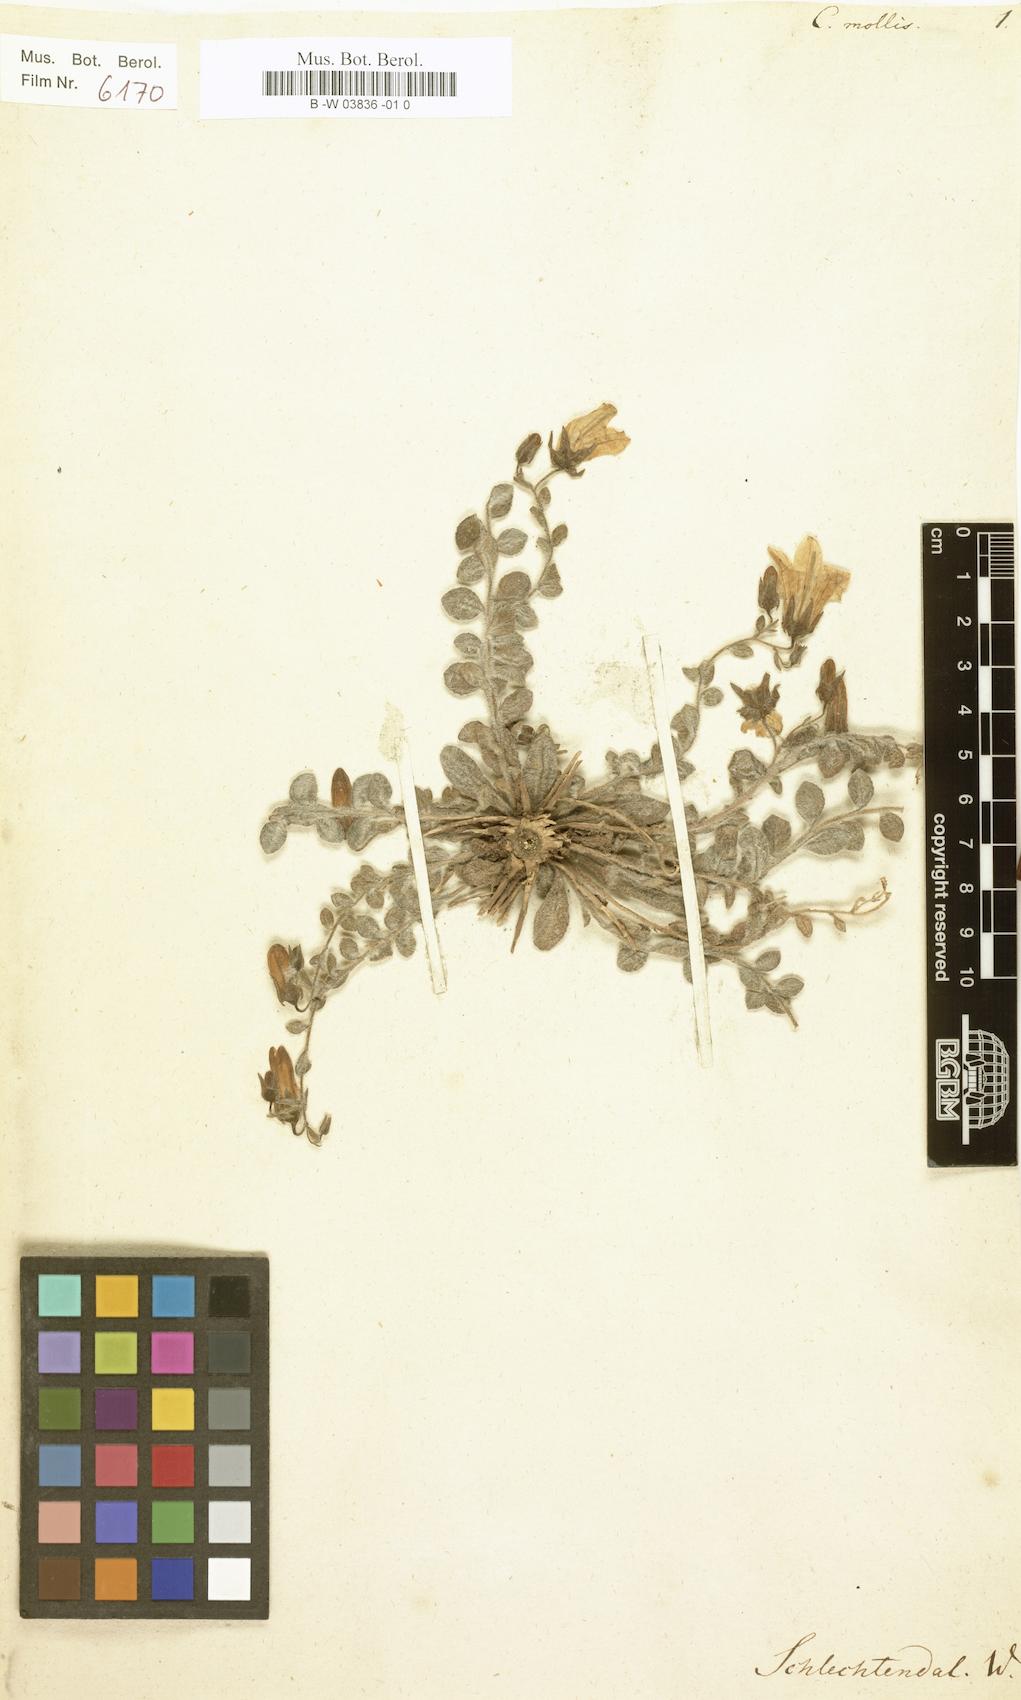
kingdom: Plantae
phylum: Tracheophyta
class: Magnoliopsida
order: Asterales
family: Campanulaceae
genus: Campanula
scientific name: Campanula mollis
